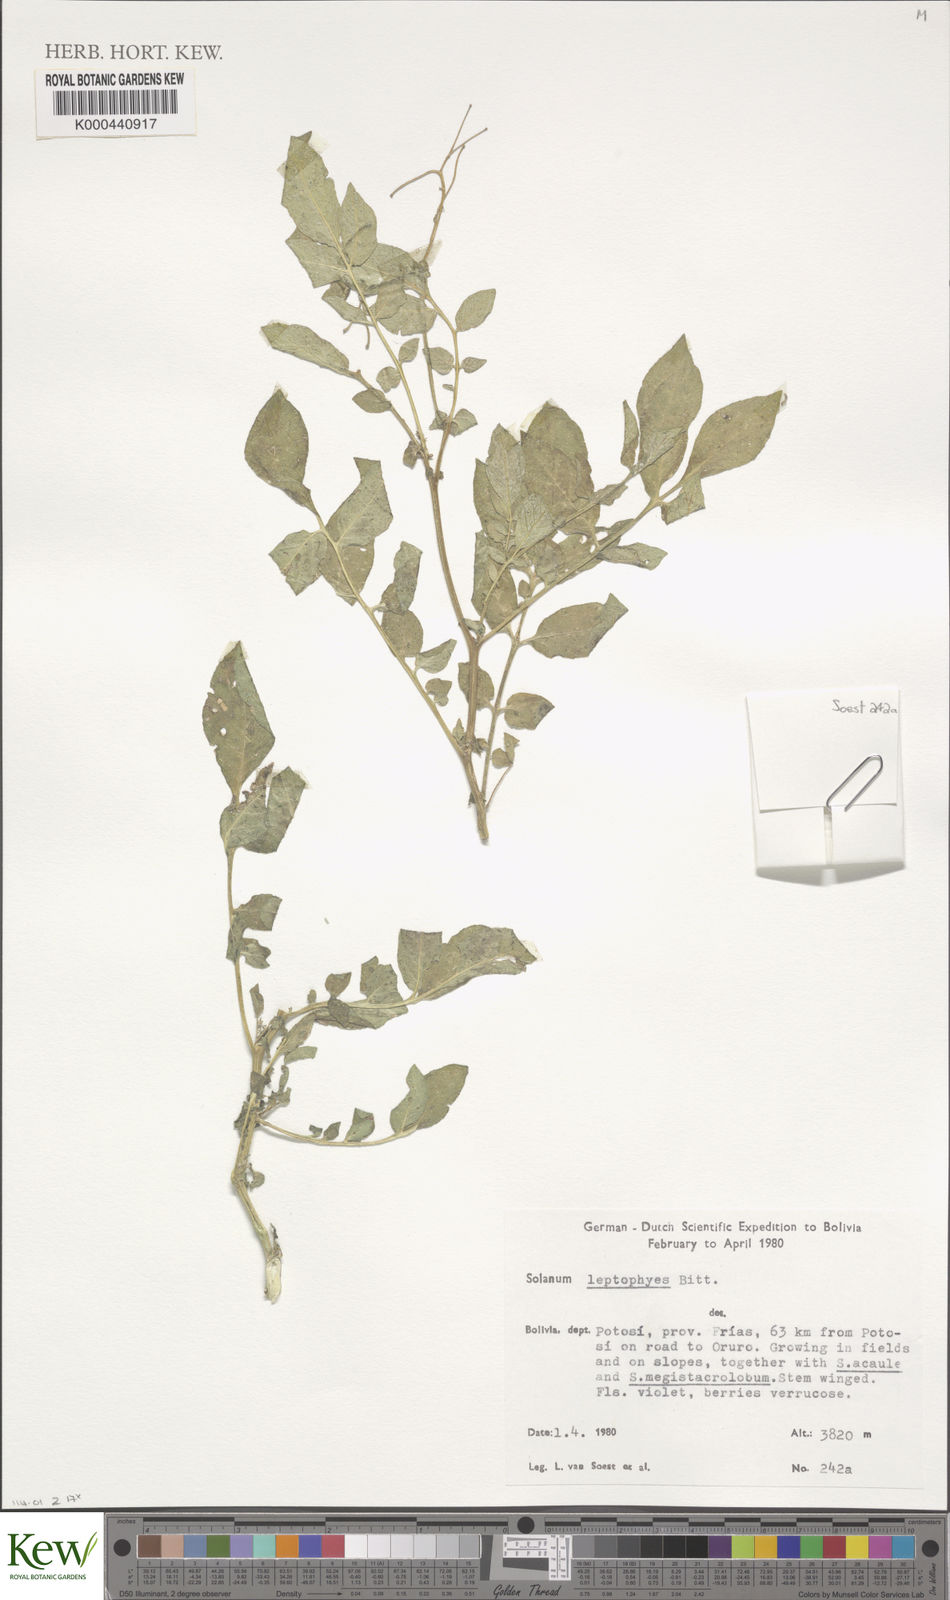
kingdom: Plantae
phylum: Tracheophyta
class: Magnoliopsida
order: Solanales
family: Solanaceae
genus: Solanum
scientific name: Solanum brevicaule
